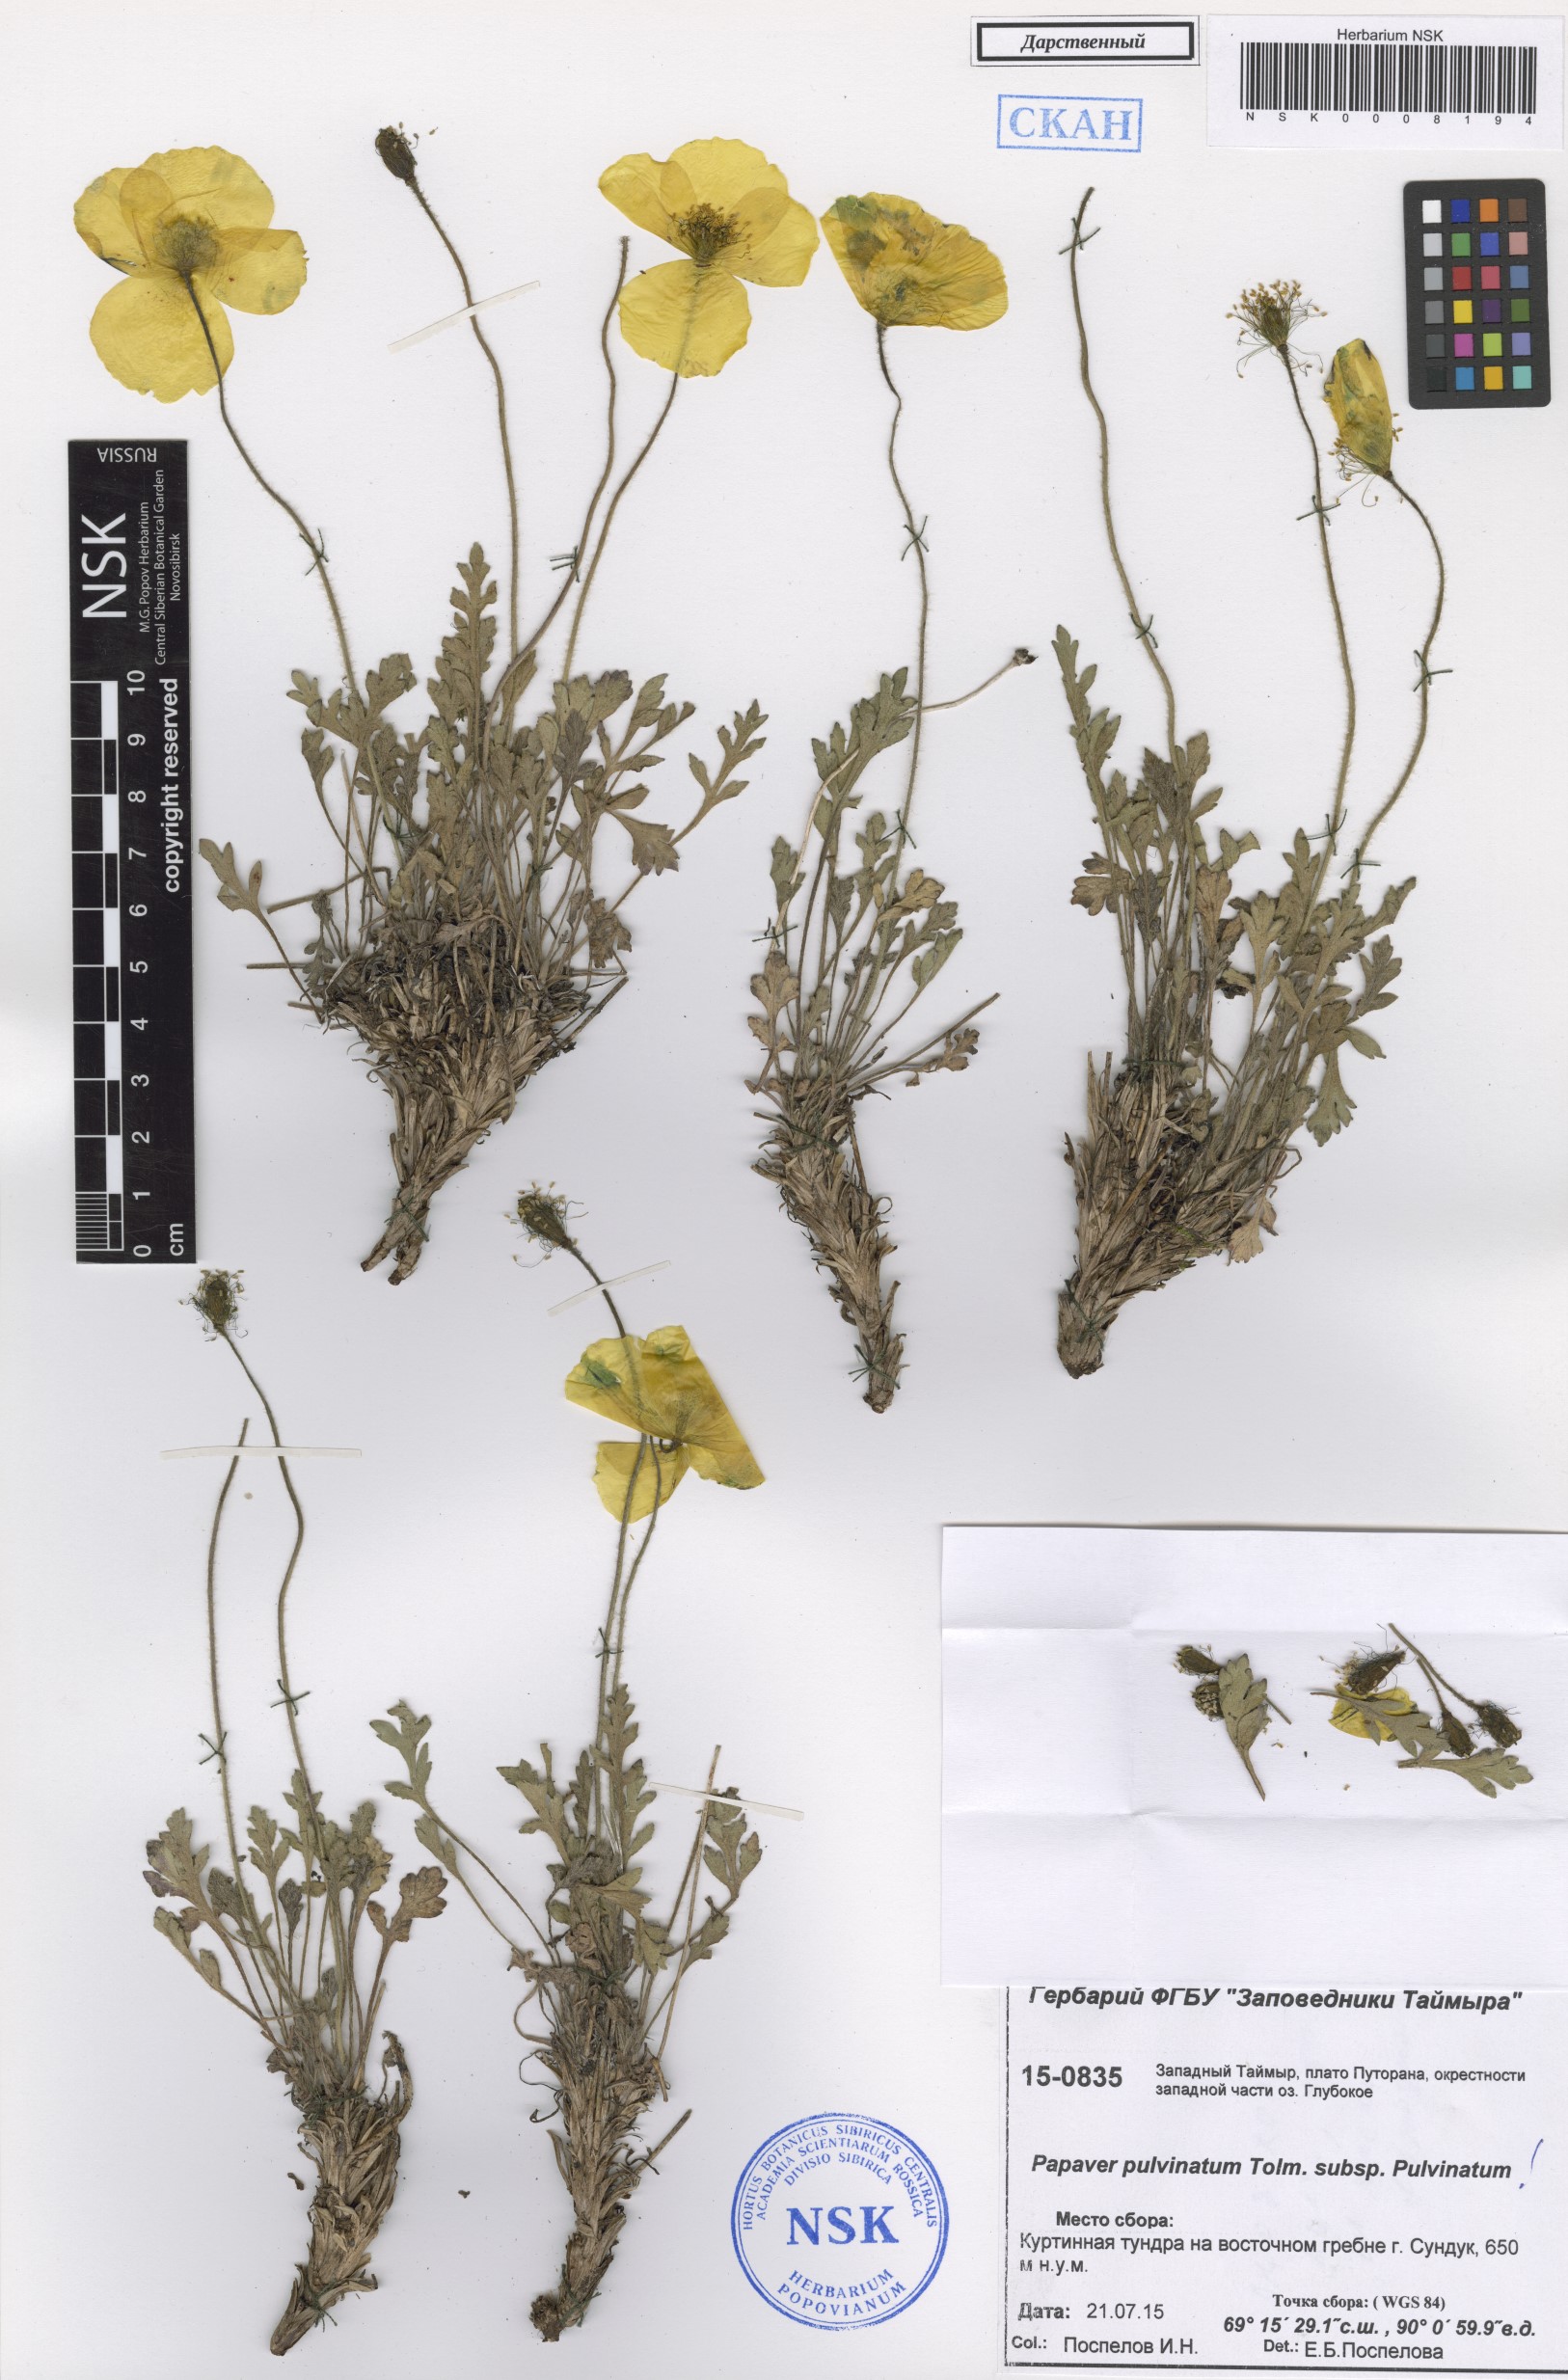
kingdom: Plantae
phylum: Tracheophyta
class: Magnoliopsida
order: Ranunculales
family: Papaveraceae
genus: Papaver
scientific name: Papaver pulvinatum
